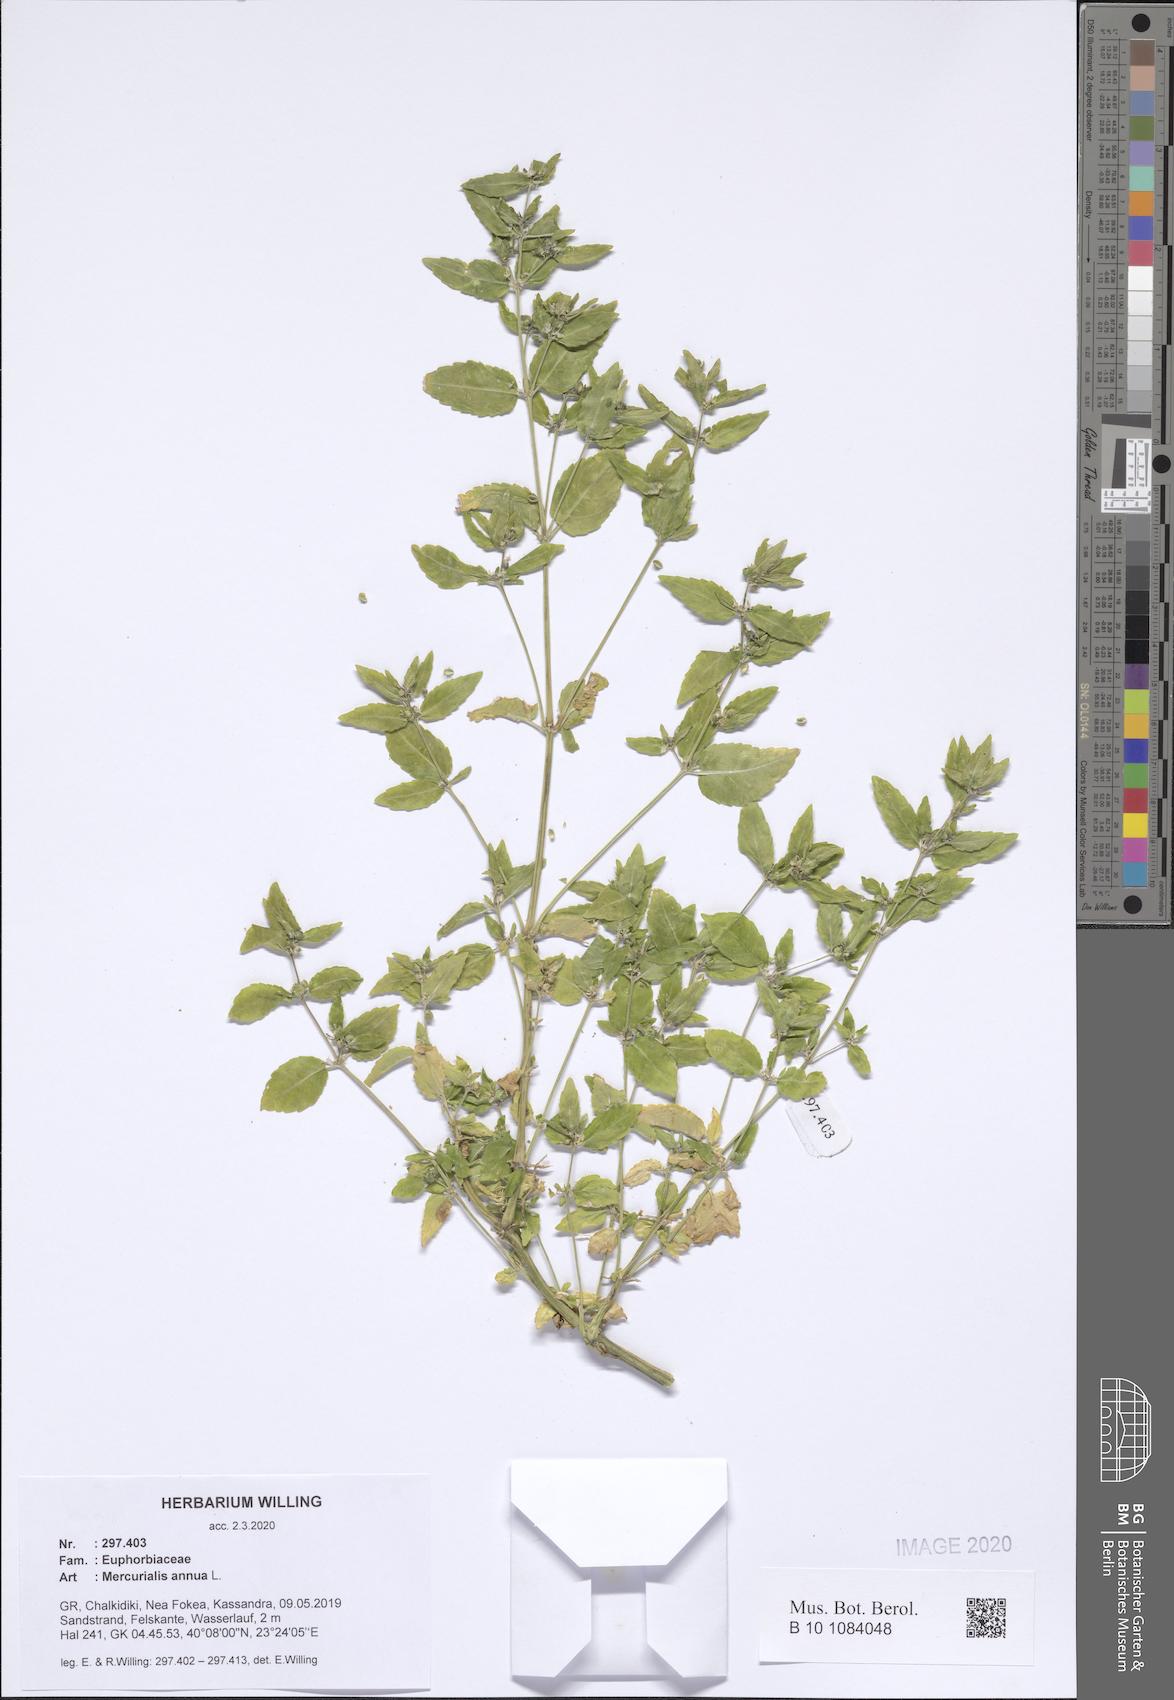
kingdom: Plantae
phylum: Tracheophyta
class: Magnoliopsida
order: Malpighiales
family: Euphorbiaceae
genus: Mercurialis
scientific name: Mercurialis annua
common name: Annual mercury
